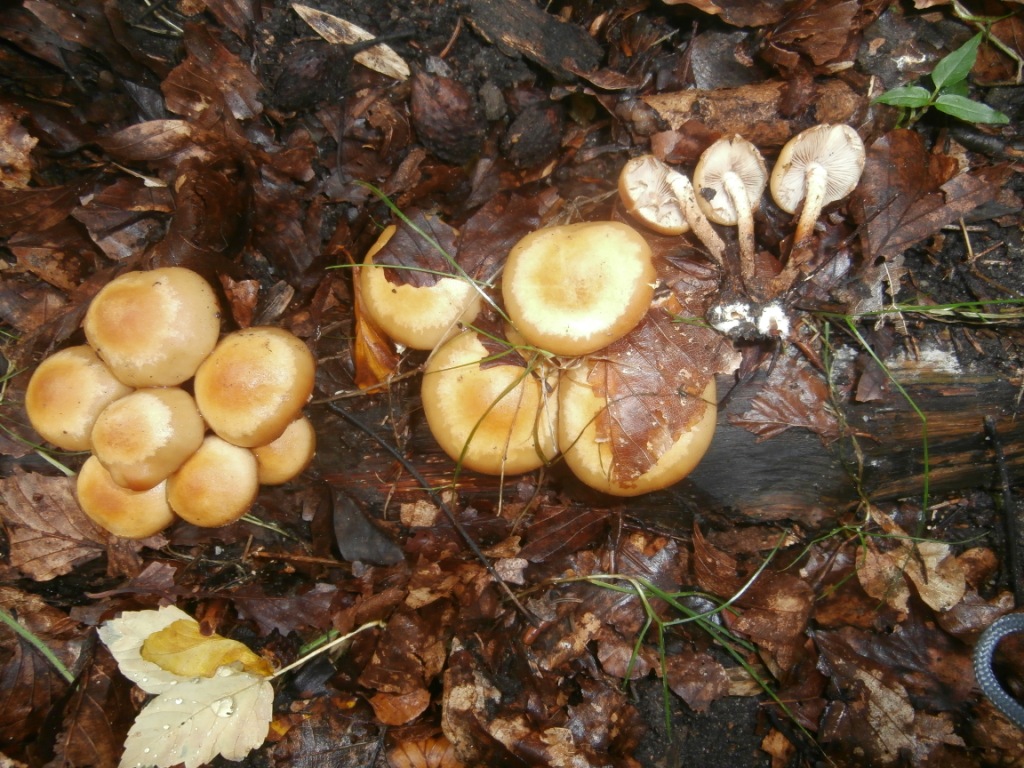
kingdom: Fungi
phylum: Basidiomycota
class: Agaricomycetes
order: Agaricales
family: Strophariaceae
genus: Kuehneromyces
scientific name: Kuehneromyces mutabilis
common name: foranderlig skælhat
